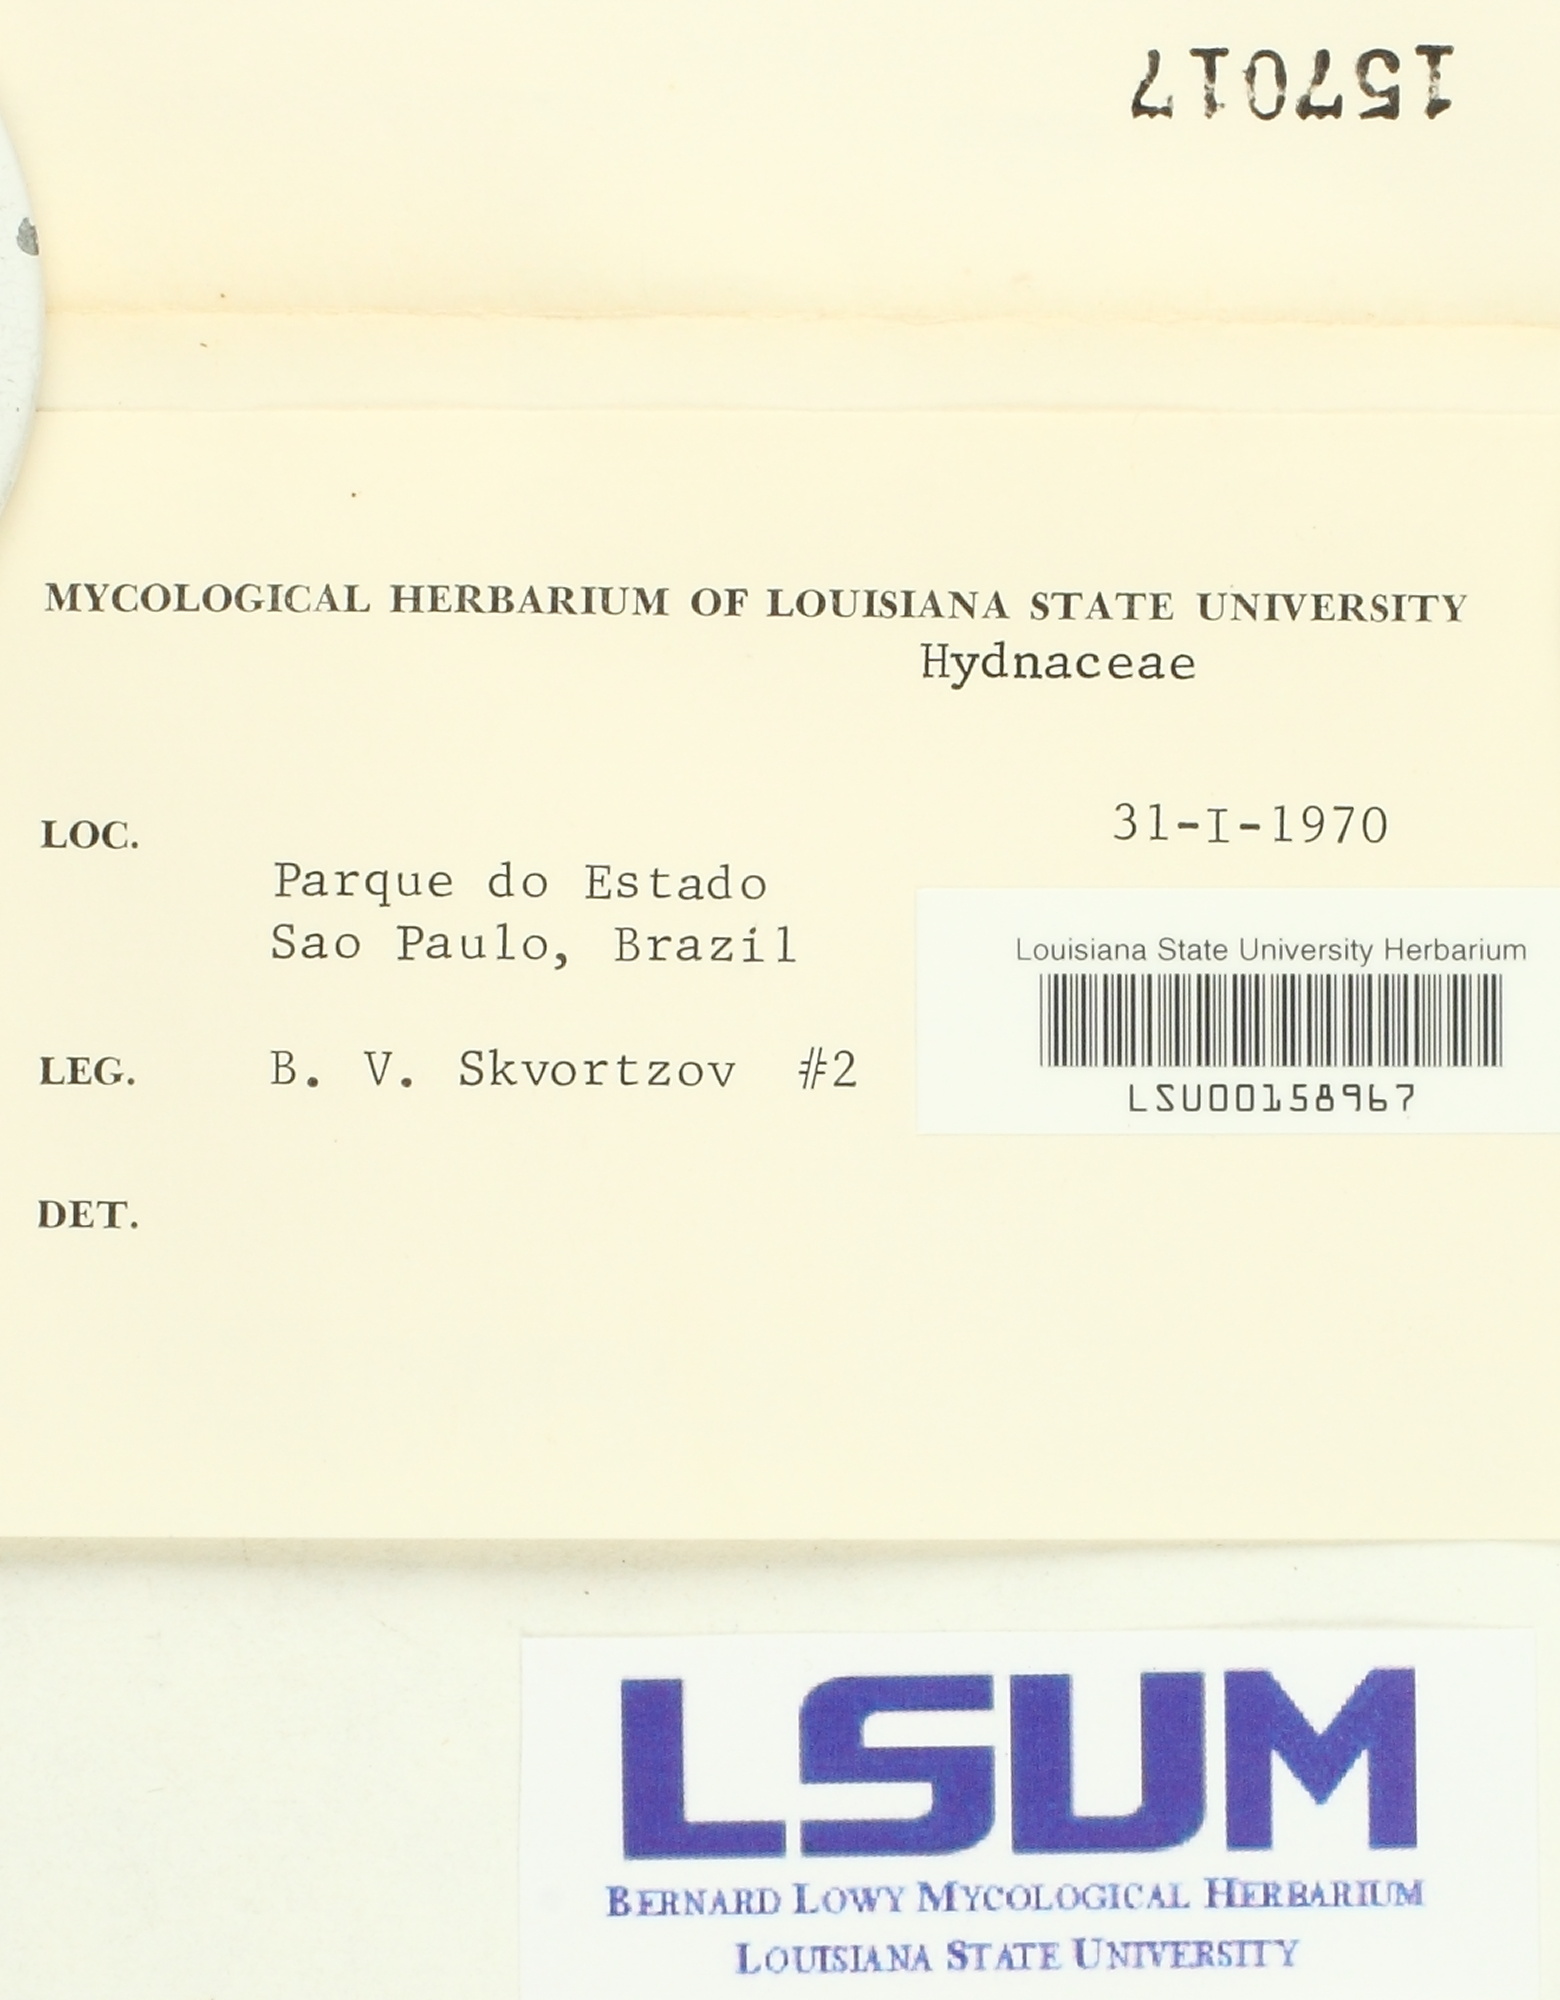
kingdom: Fungi
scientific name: Fungi
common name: Fungi
